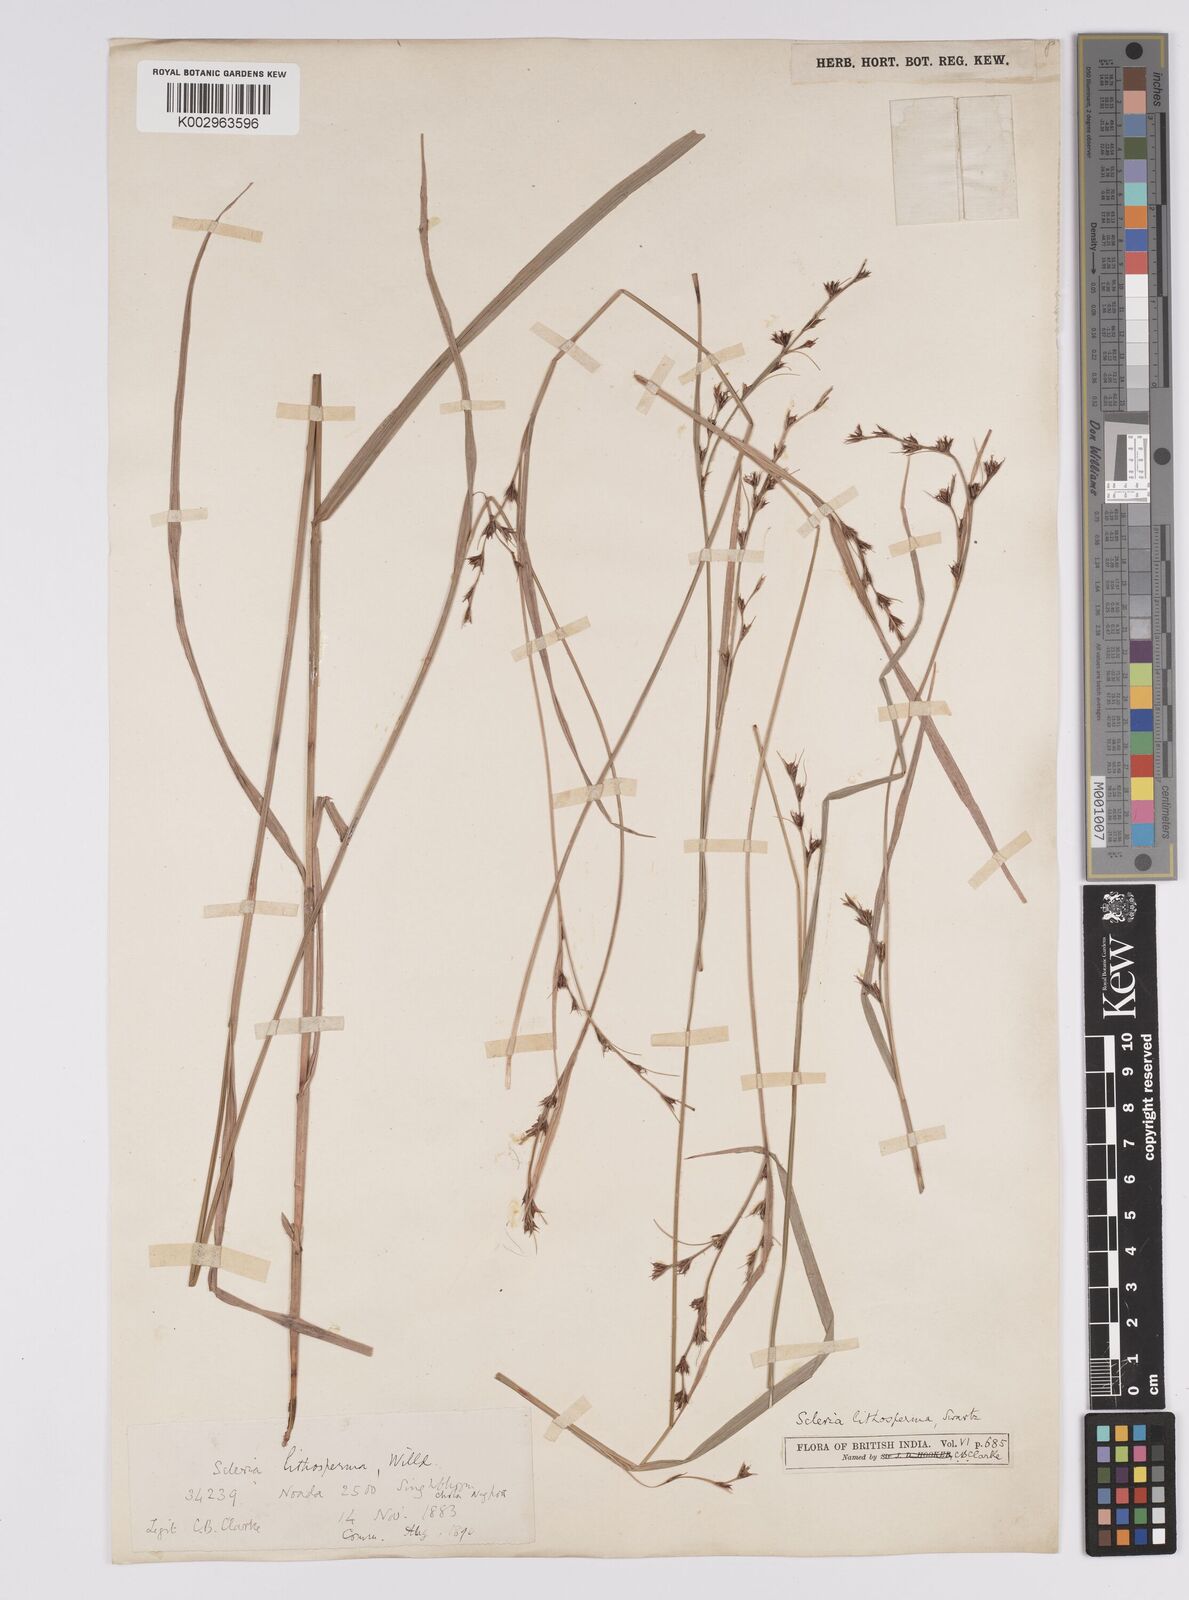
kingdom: Plantae
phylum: Tracheophyta
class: Liliopsida
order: Poales
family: Cyperaceae
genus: Scleria
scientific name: Scleria lithosperma
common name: Florida keys nut-rush
